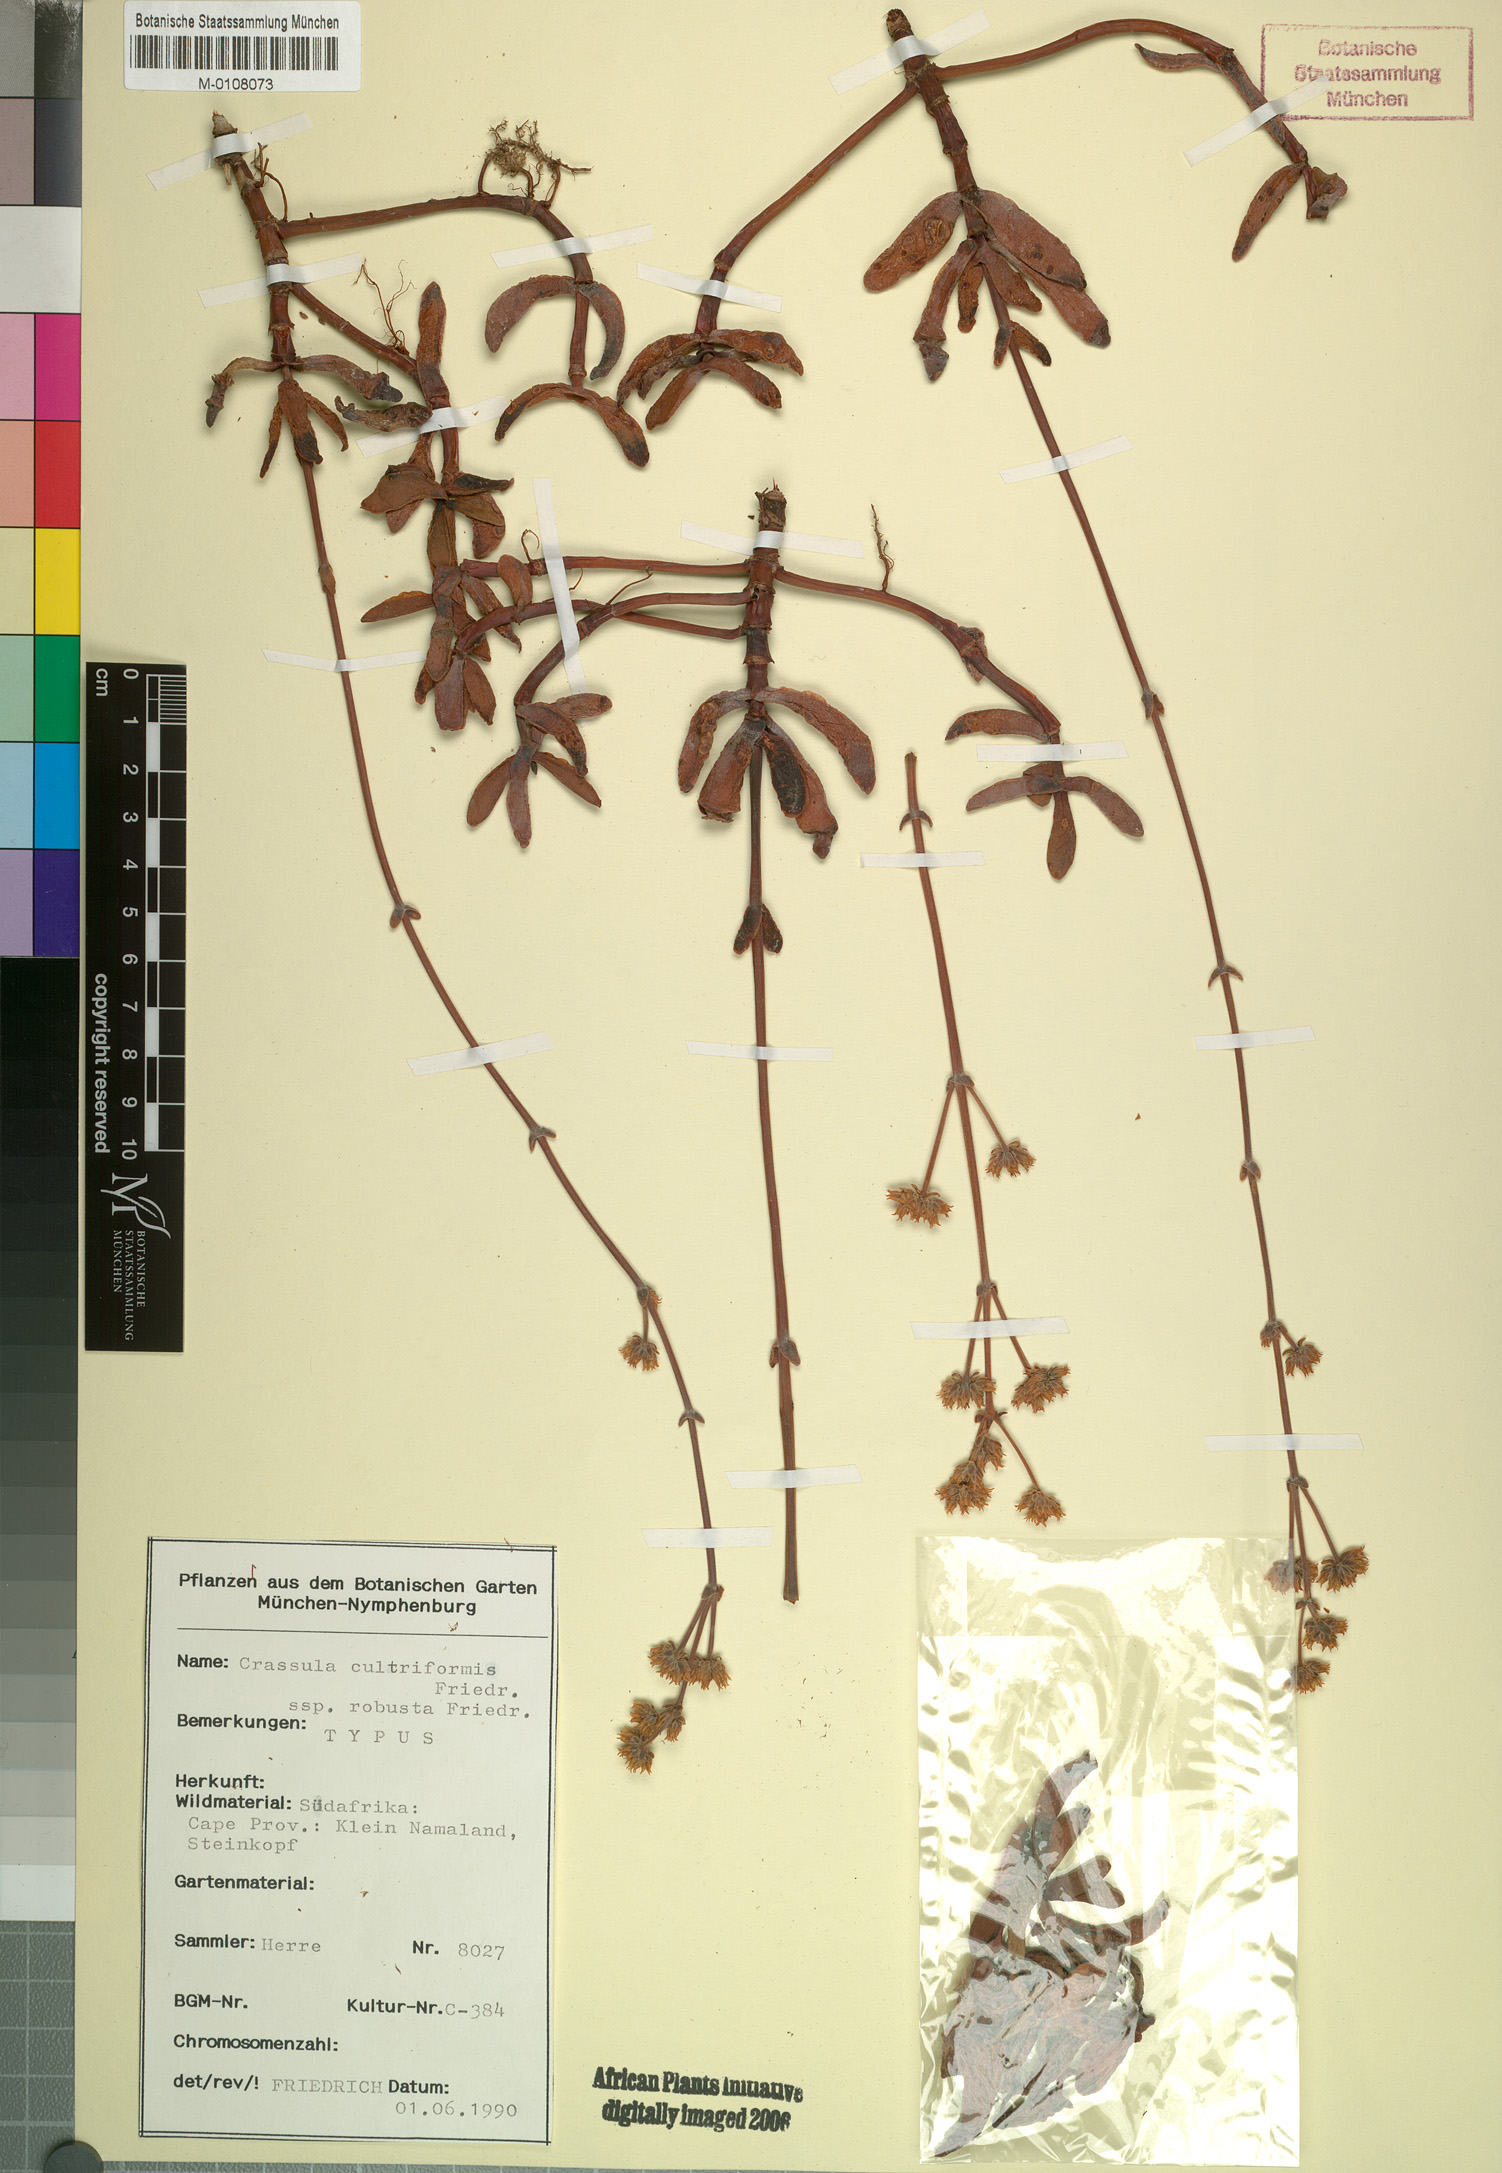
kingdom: Plantae
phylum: Tracheophyta
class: Magnoliopsida
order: Saxifragales
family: Crassulaceae
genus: Crassula
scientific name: Crassula atropurpurea
